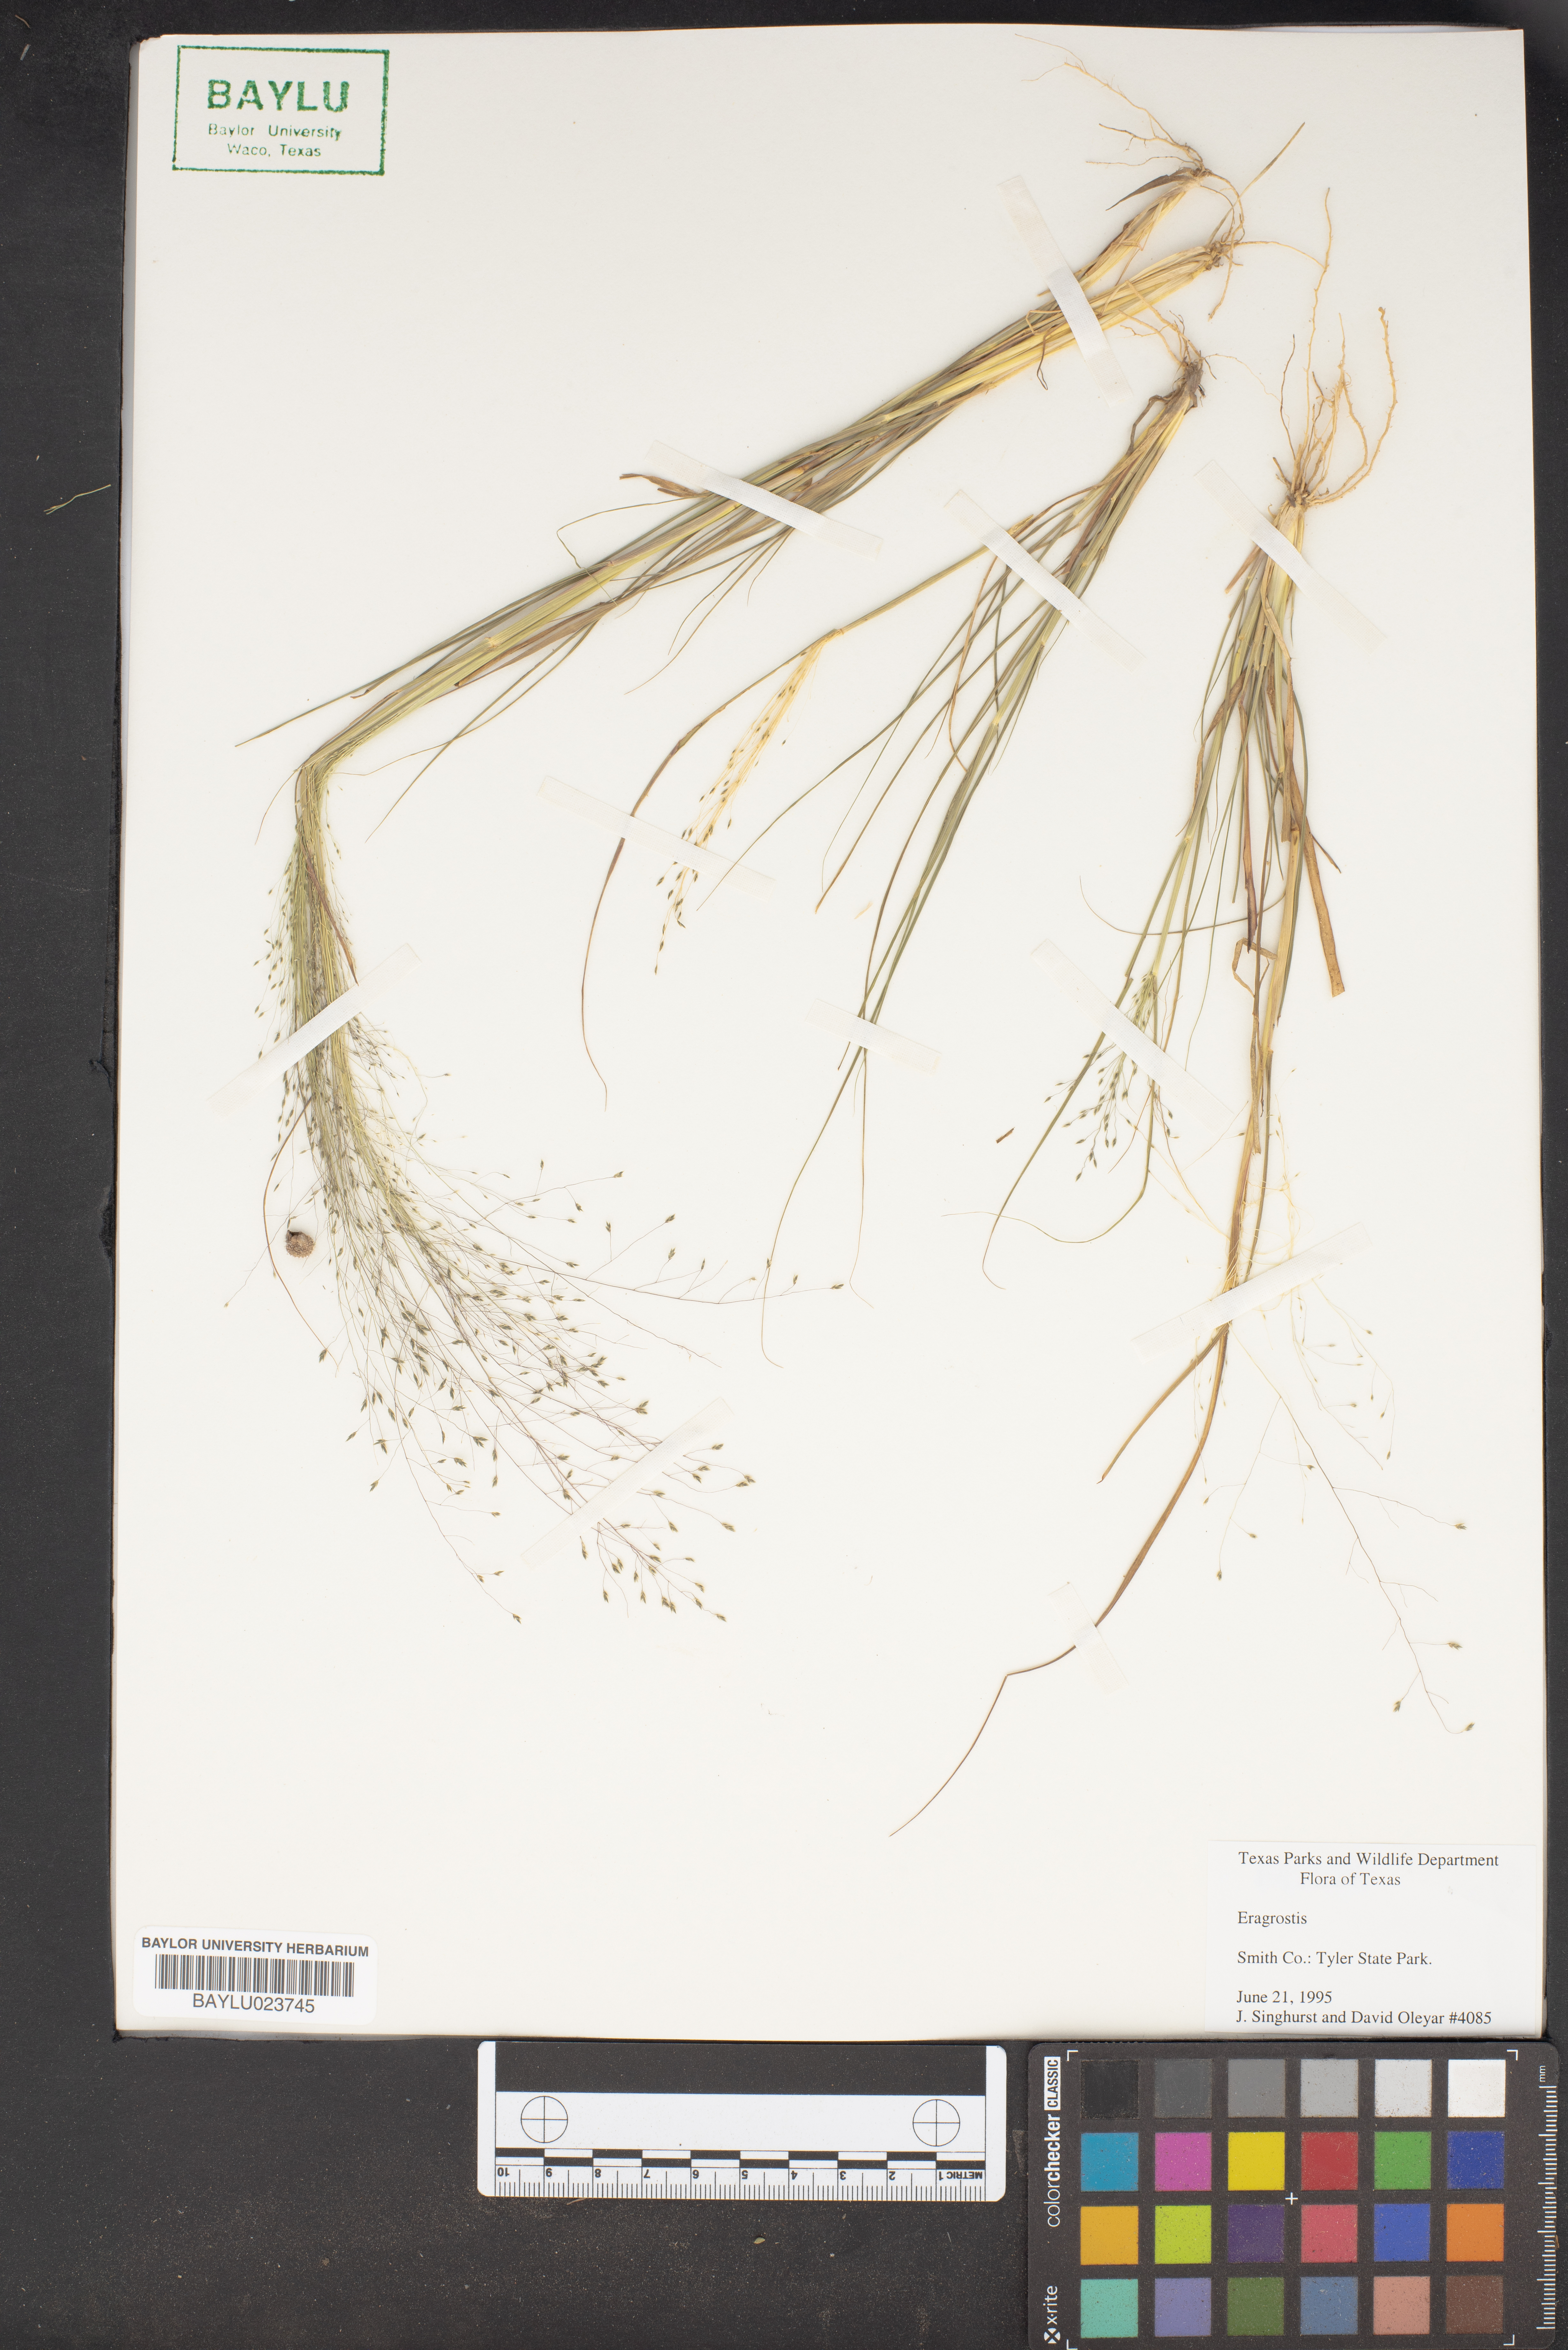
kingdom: Plantae
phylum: Tracheophyta
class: Liliopsida
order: Poales
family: Poaceae
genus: Eragrostis
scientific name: Eragrostis
